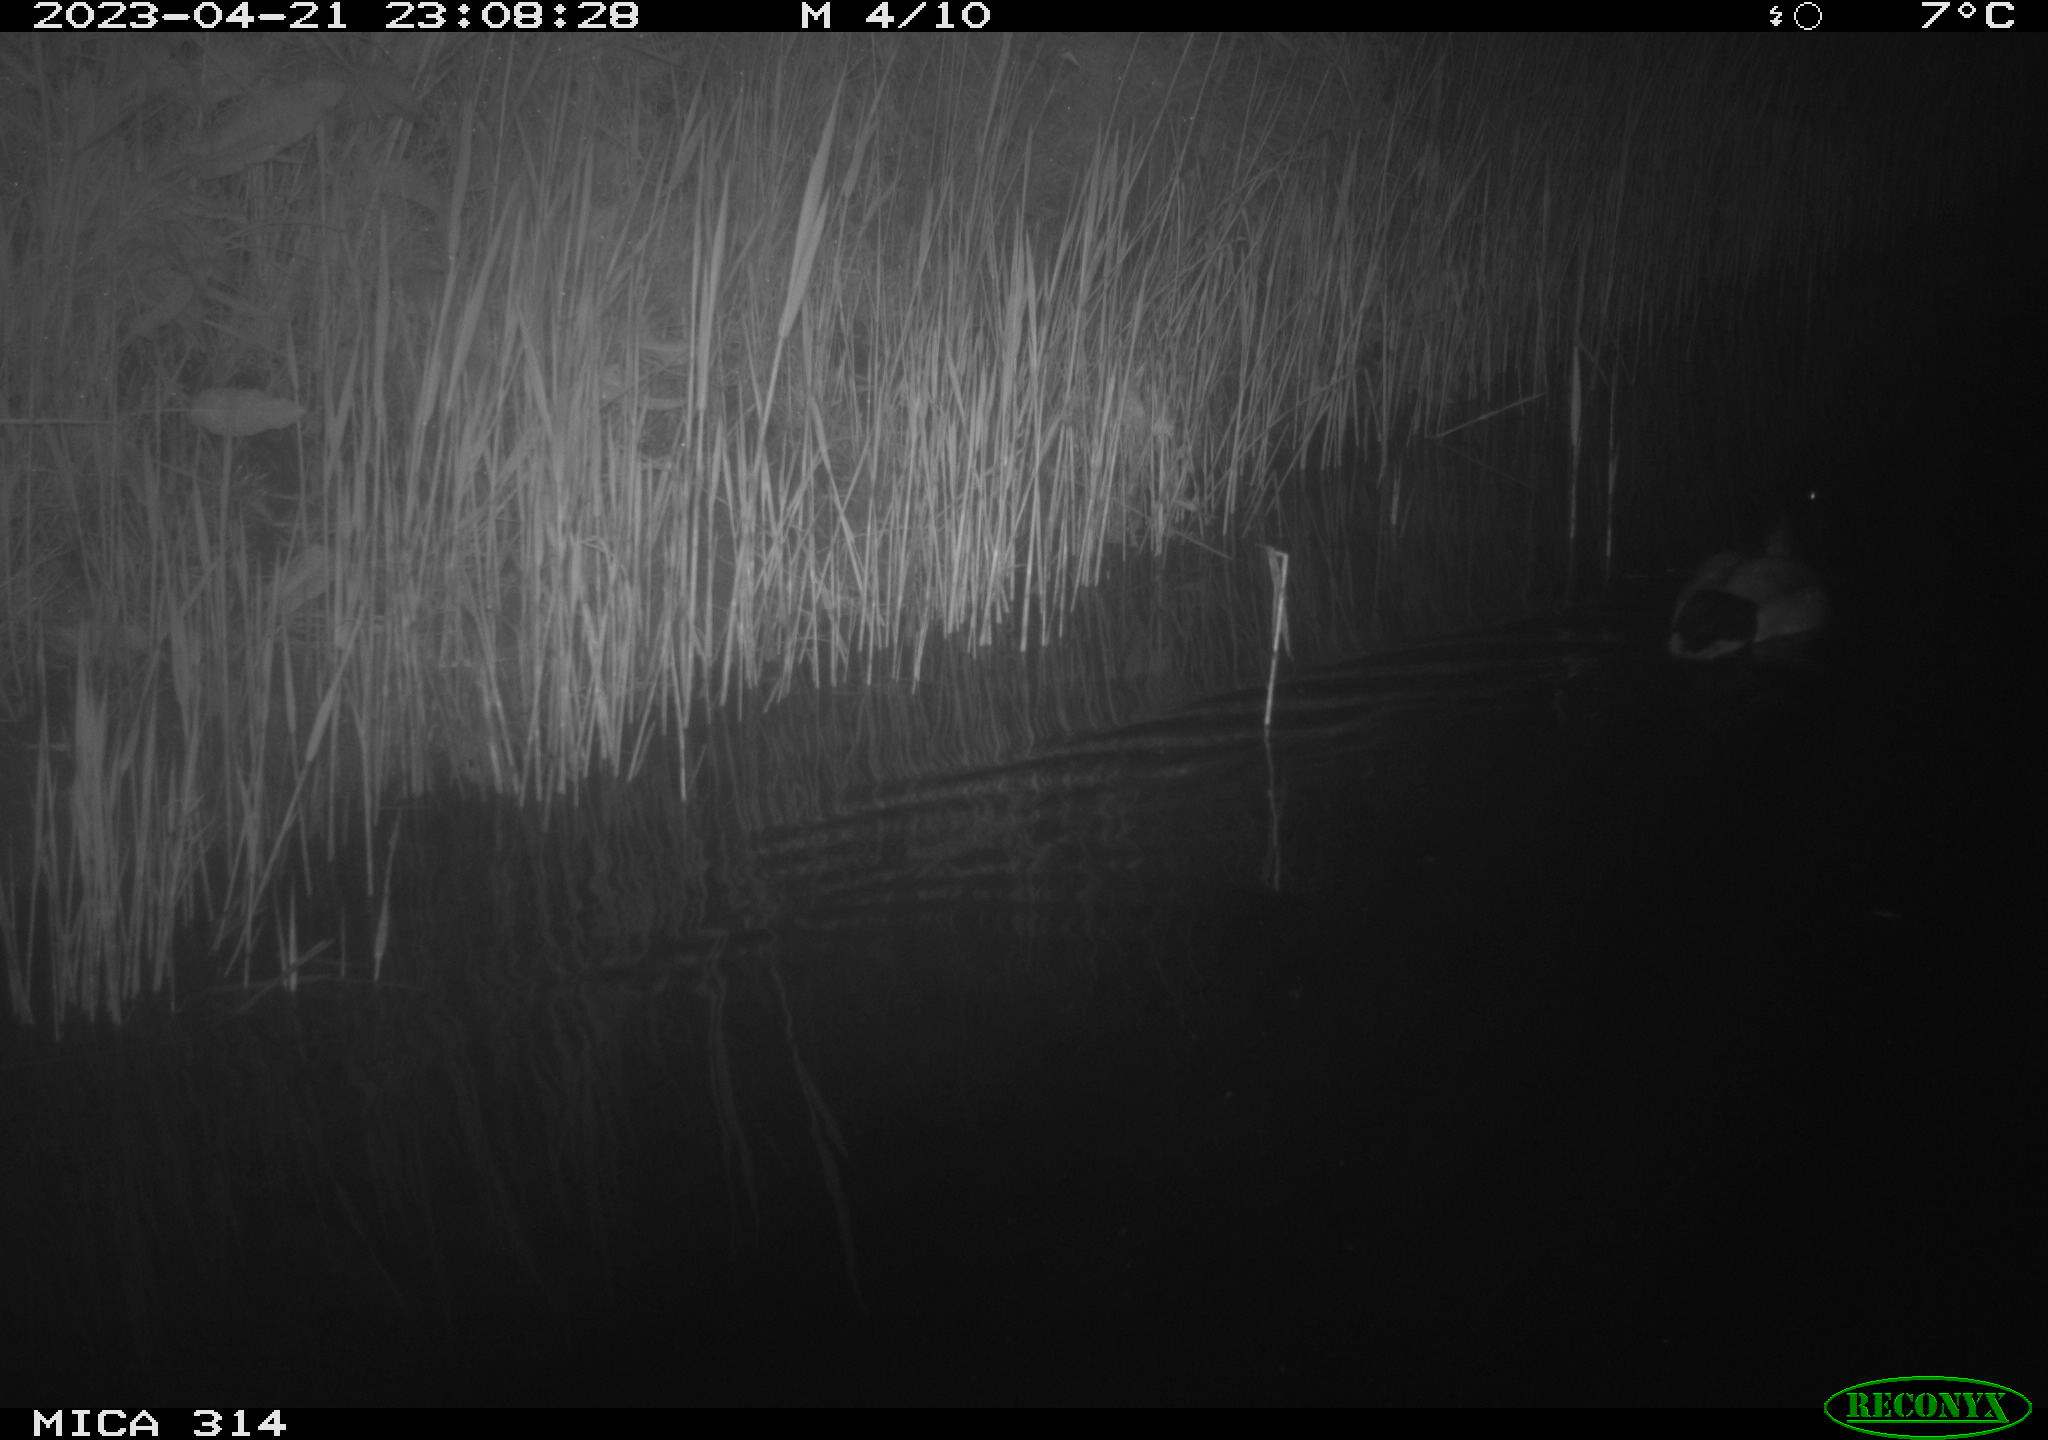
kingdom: Animalia
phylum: Chordata
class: Aves
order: Anseriformes
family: Anatidae
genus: Anas
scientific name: Anas
